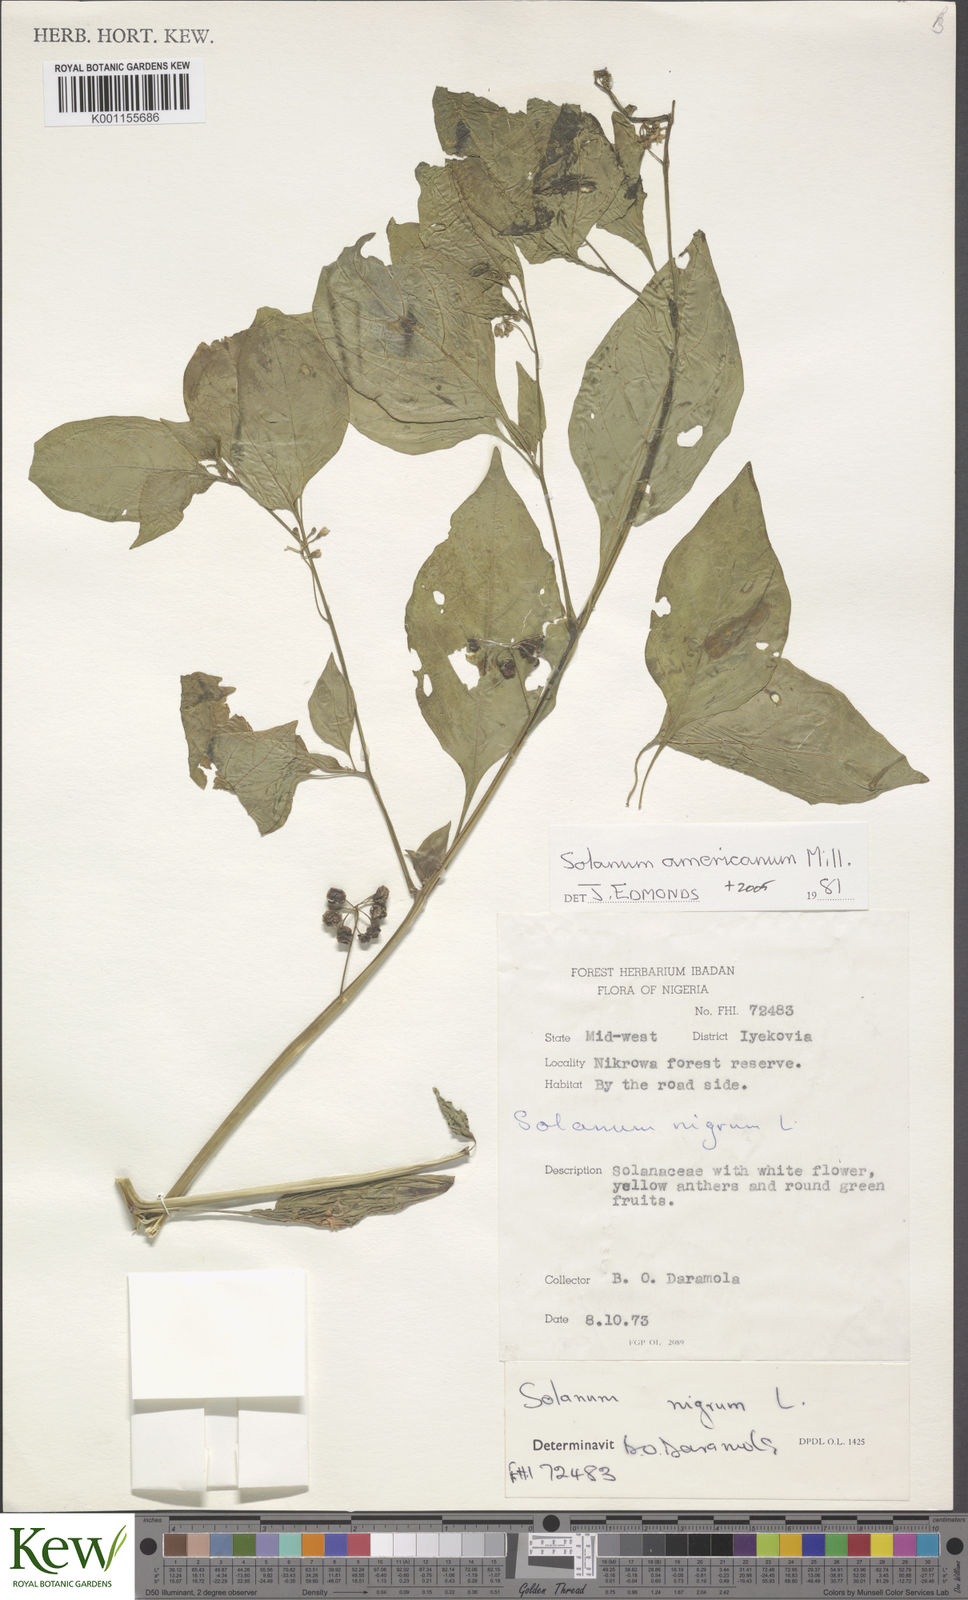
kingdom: Plantae
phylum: Tracheophyta
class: Magnoliopsida
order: Solanales
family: Solanaceae
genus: Solanum
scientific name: Solanum scabrum
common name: Garden-huckleberry
